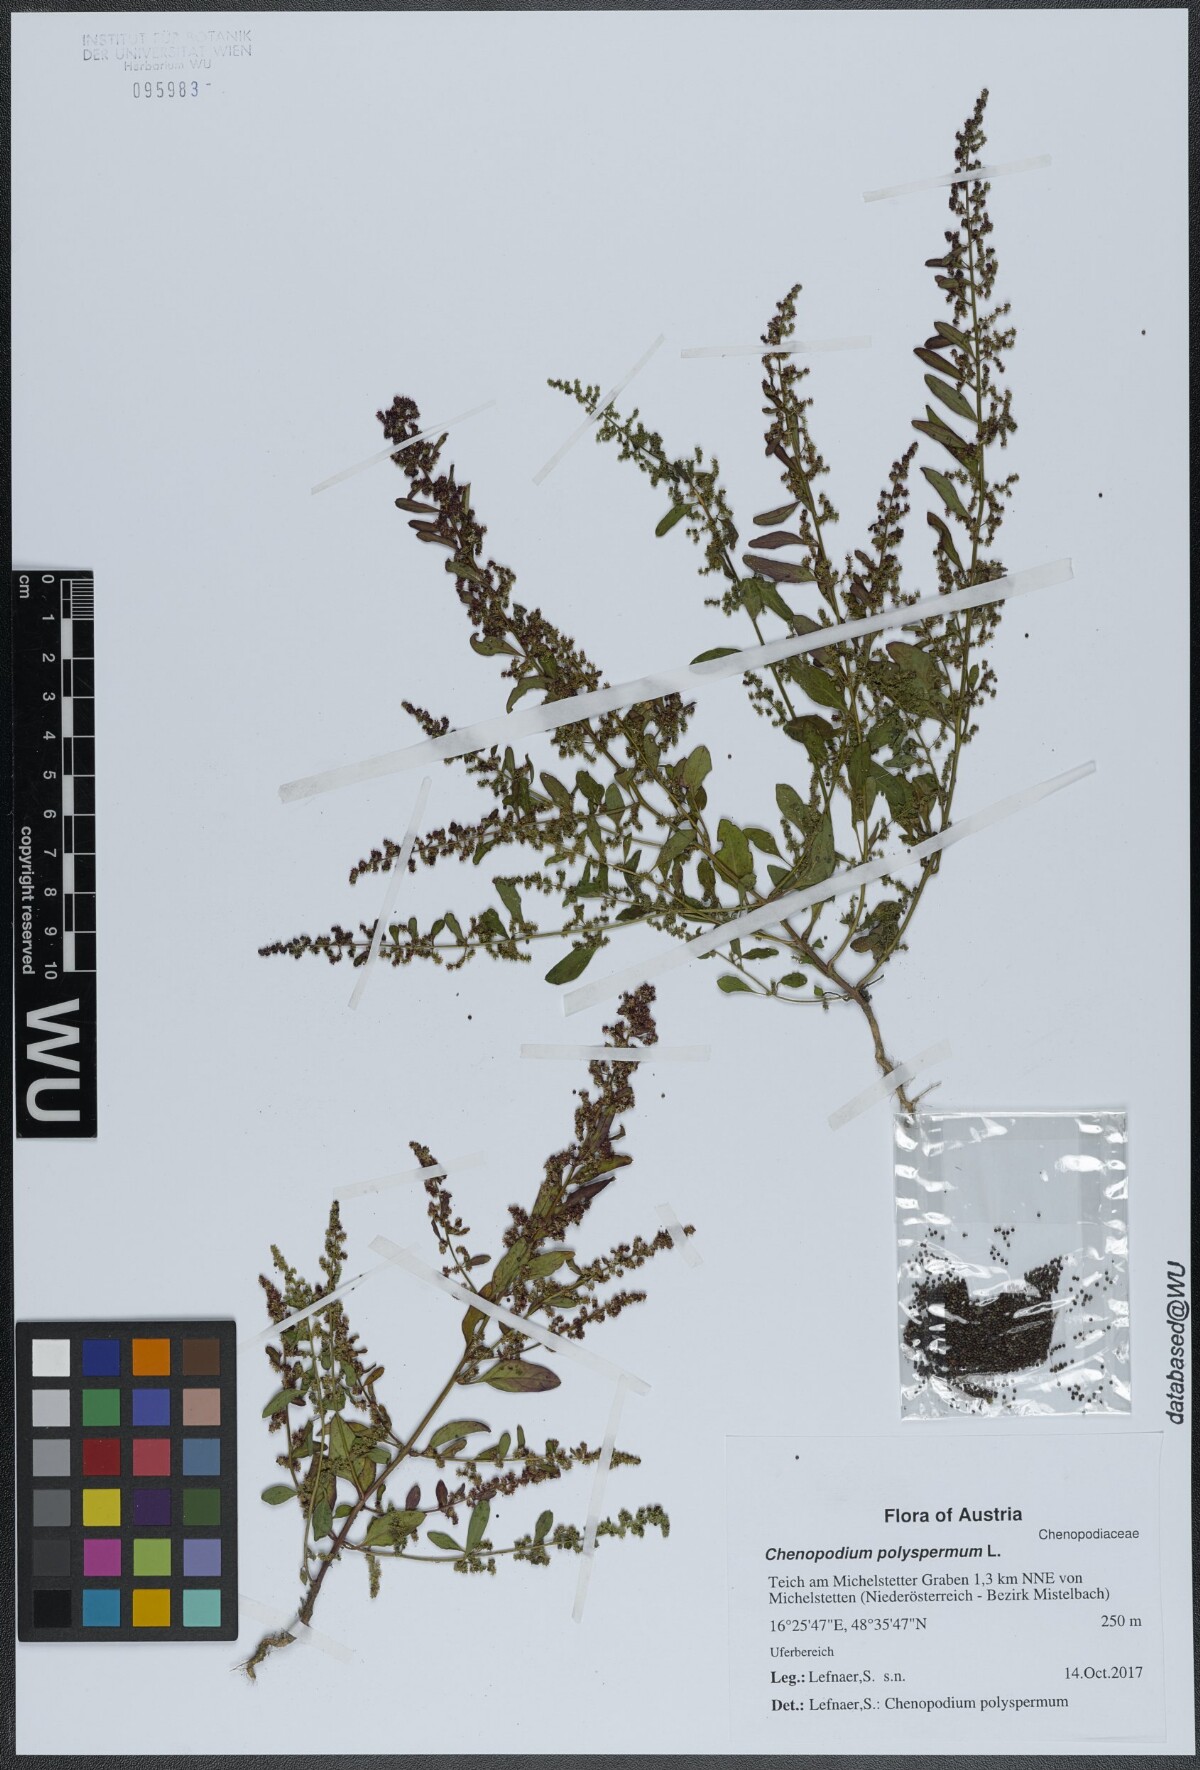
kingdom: Plantae
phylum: Tracheophyta
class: Magnoliopsida
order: Caryophyllales
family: Amaranthaceae
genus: Lipandra
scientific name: Lipandra polysperma
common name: Many-seed goosefoot
